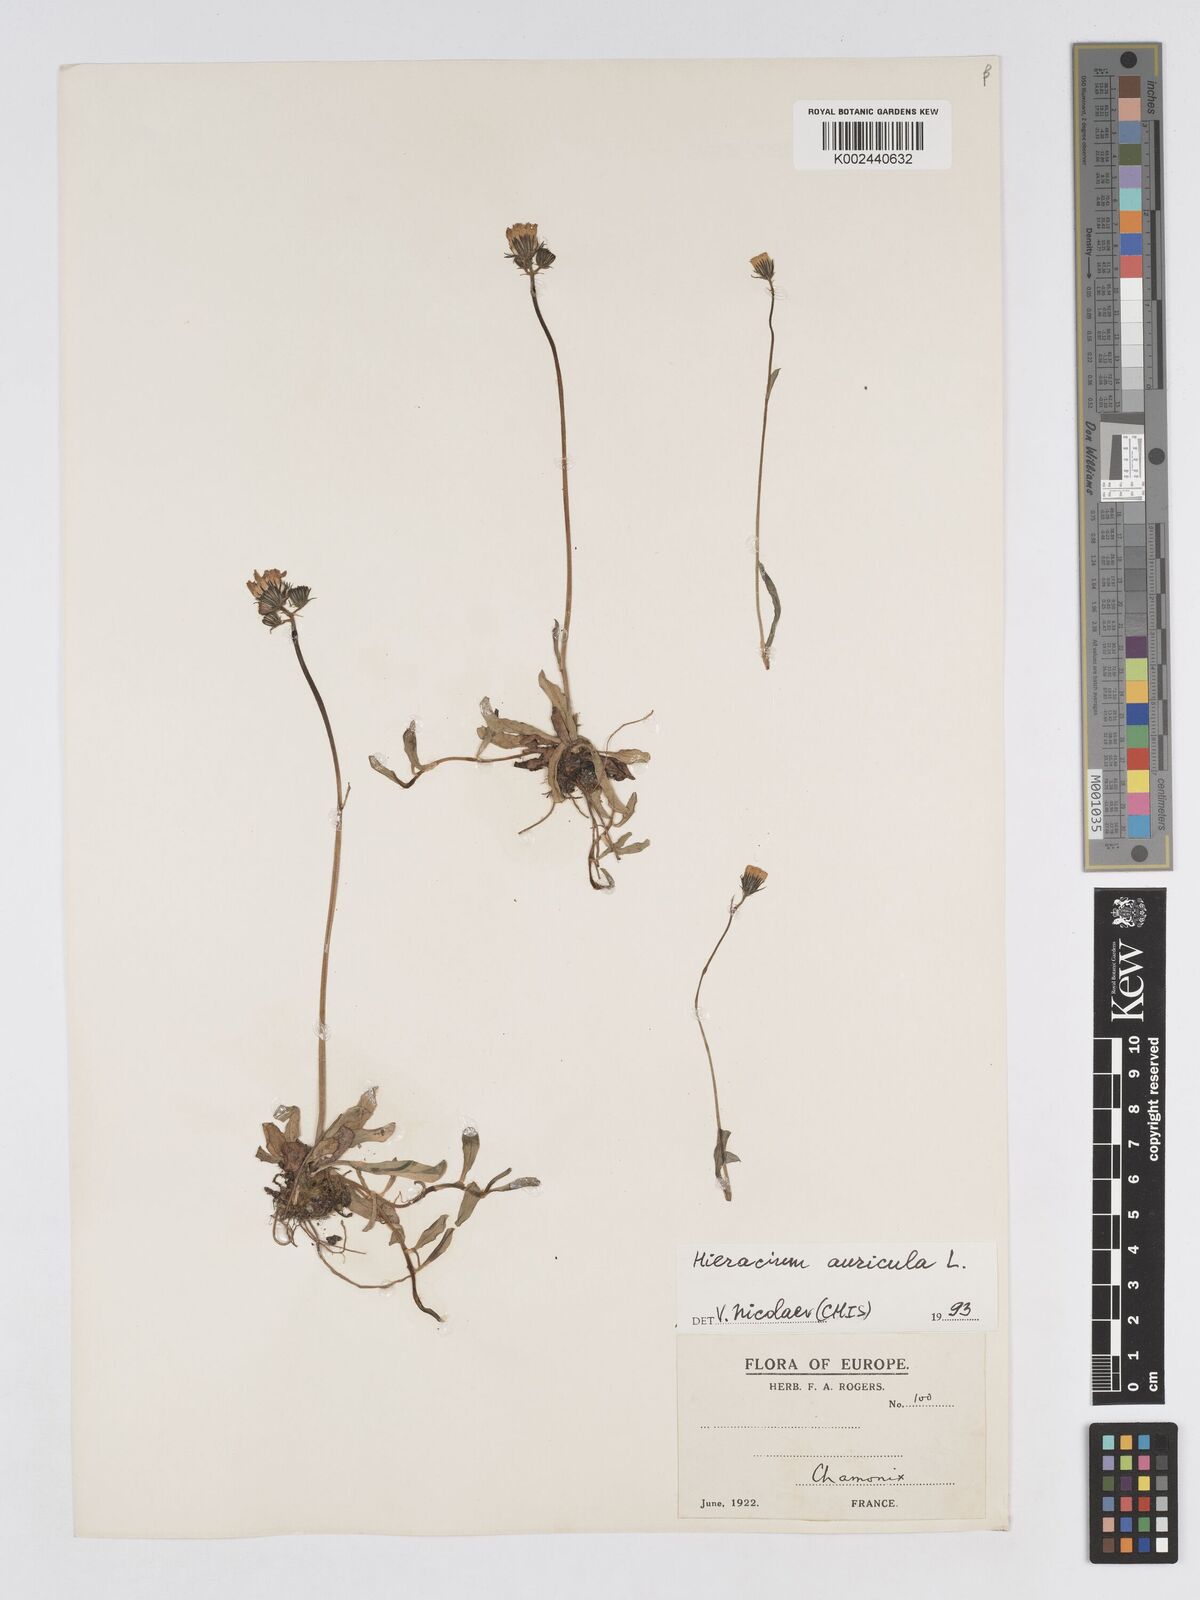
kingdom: Plantae
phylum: Tracheophyta
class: Magnoliopsida
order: Asterales
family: Asteraceae
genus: Pilosella
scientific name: Pilosella floribunda
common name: Glaucous hawkweed
